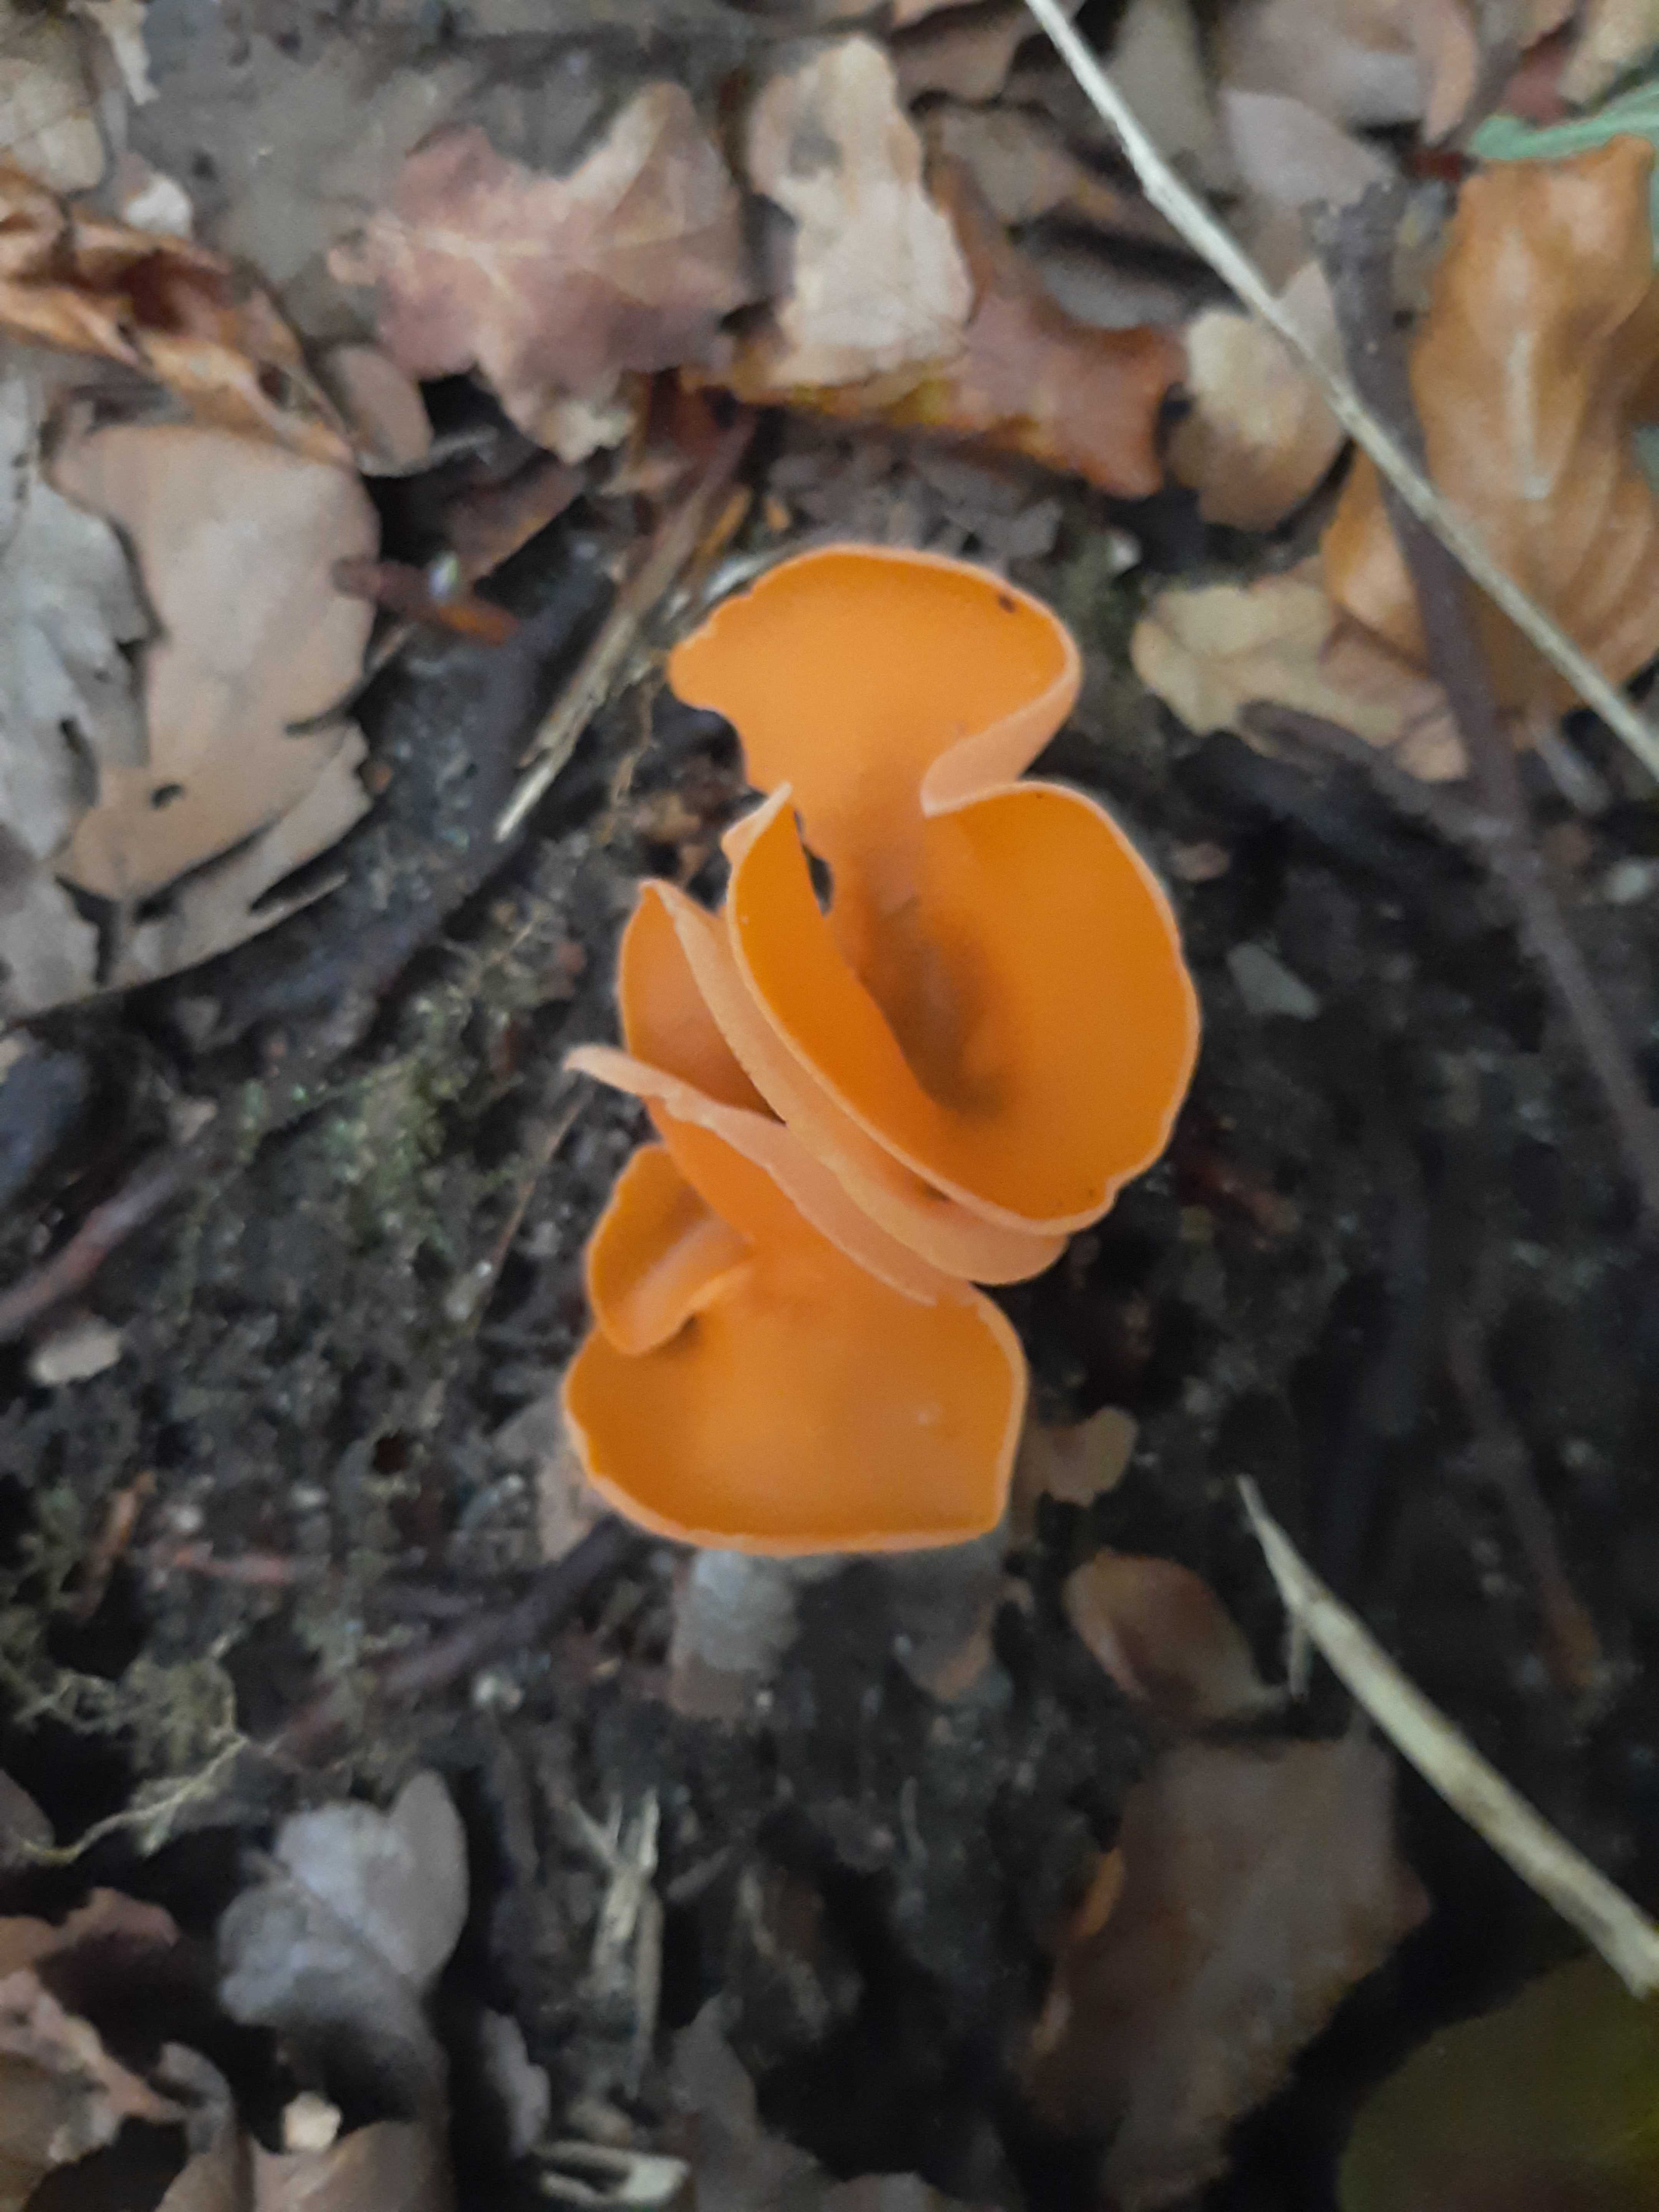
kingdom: Fungi
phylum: Ascomycota
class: Pezizomycetes
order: Pezizales
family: Pyronemataceae
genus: Aleuria
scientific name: Aleuria aurantia
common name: almindelig orangebæger
